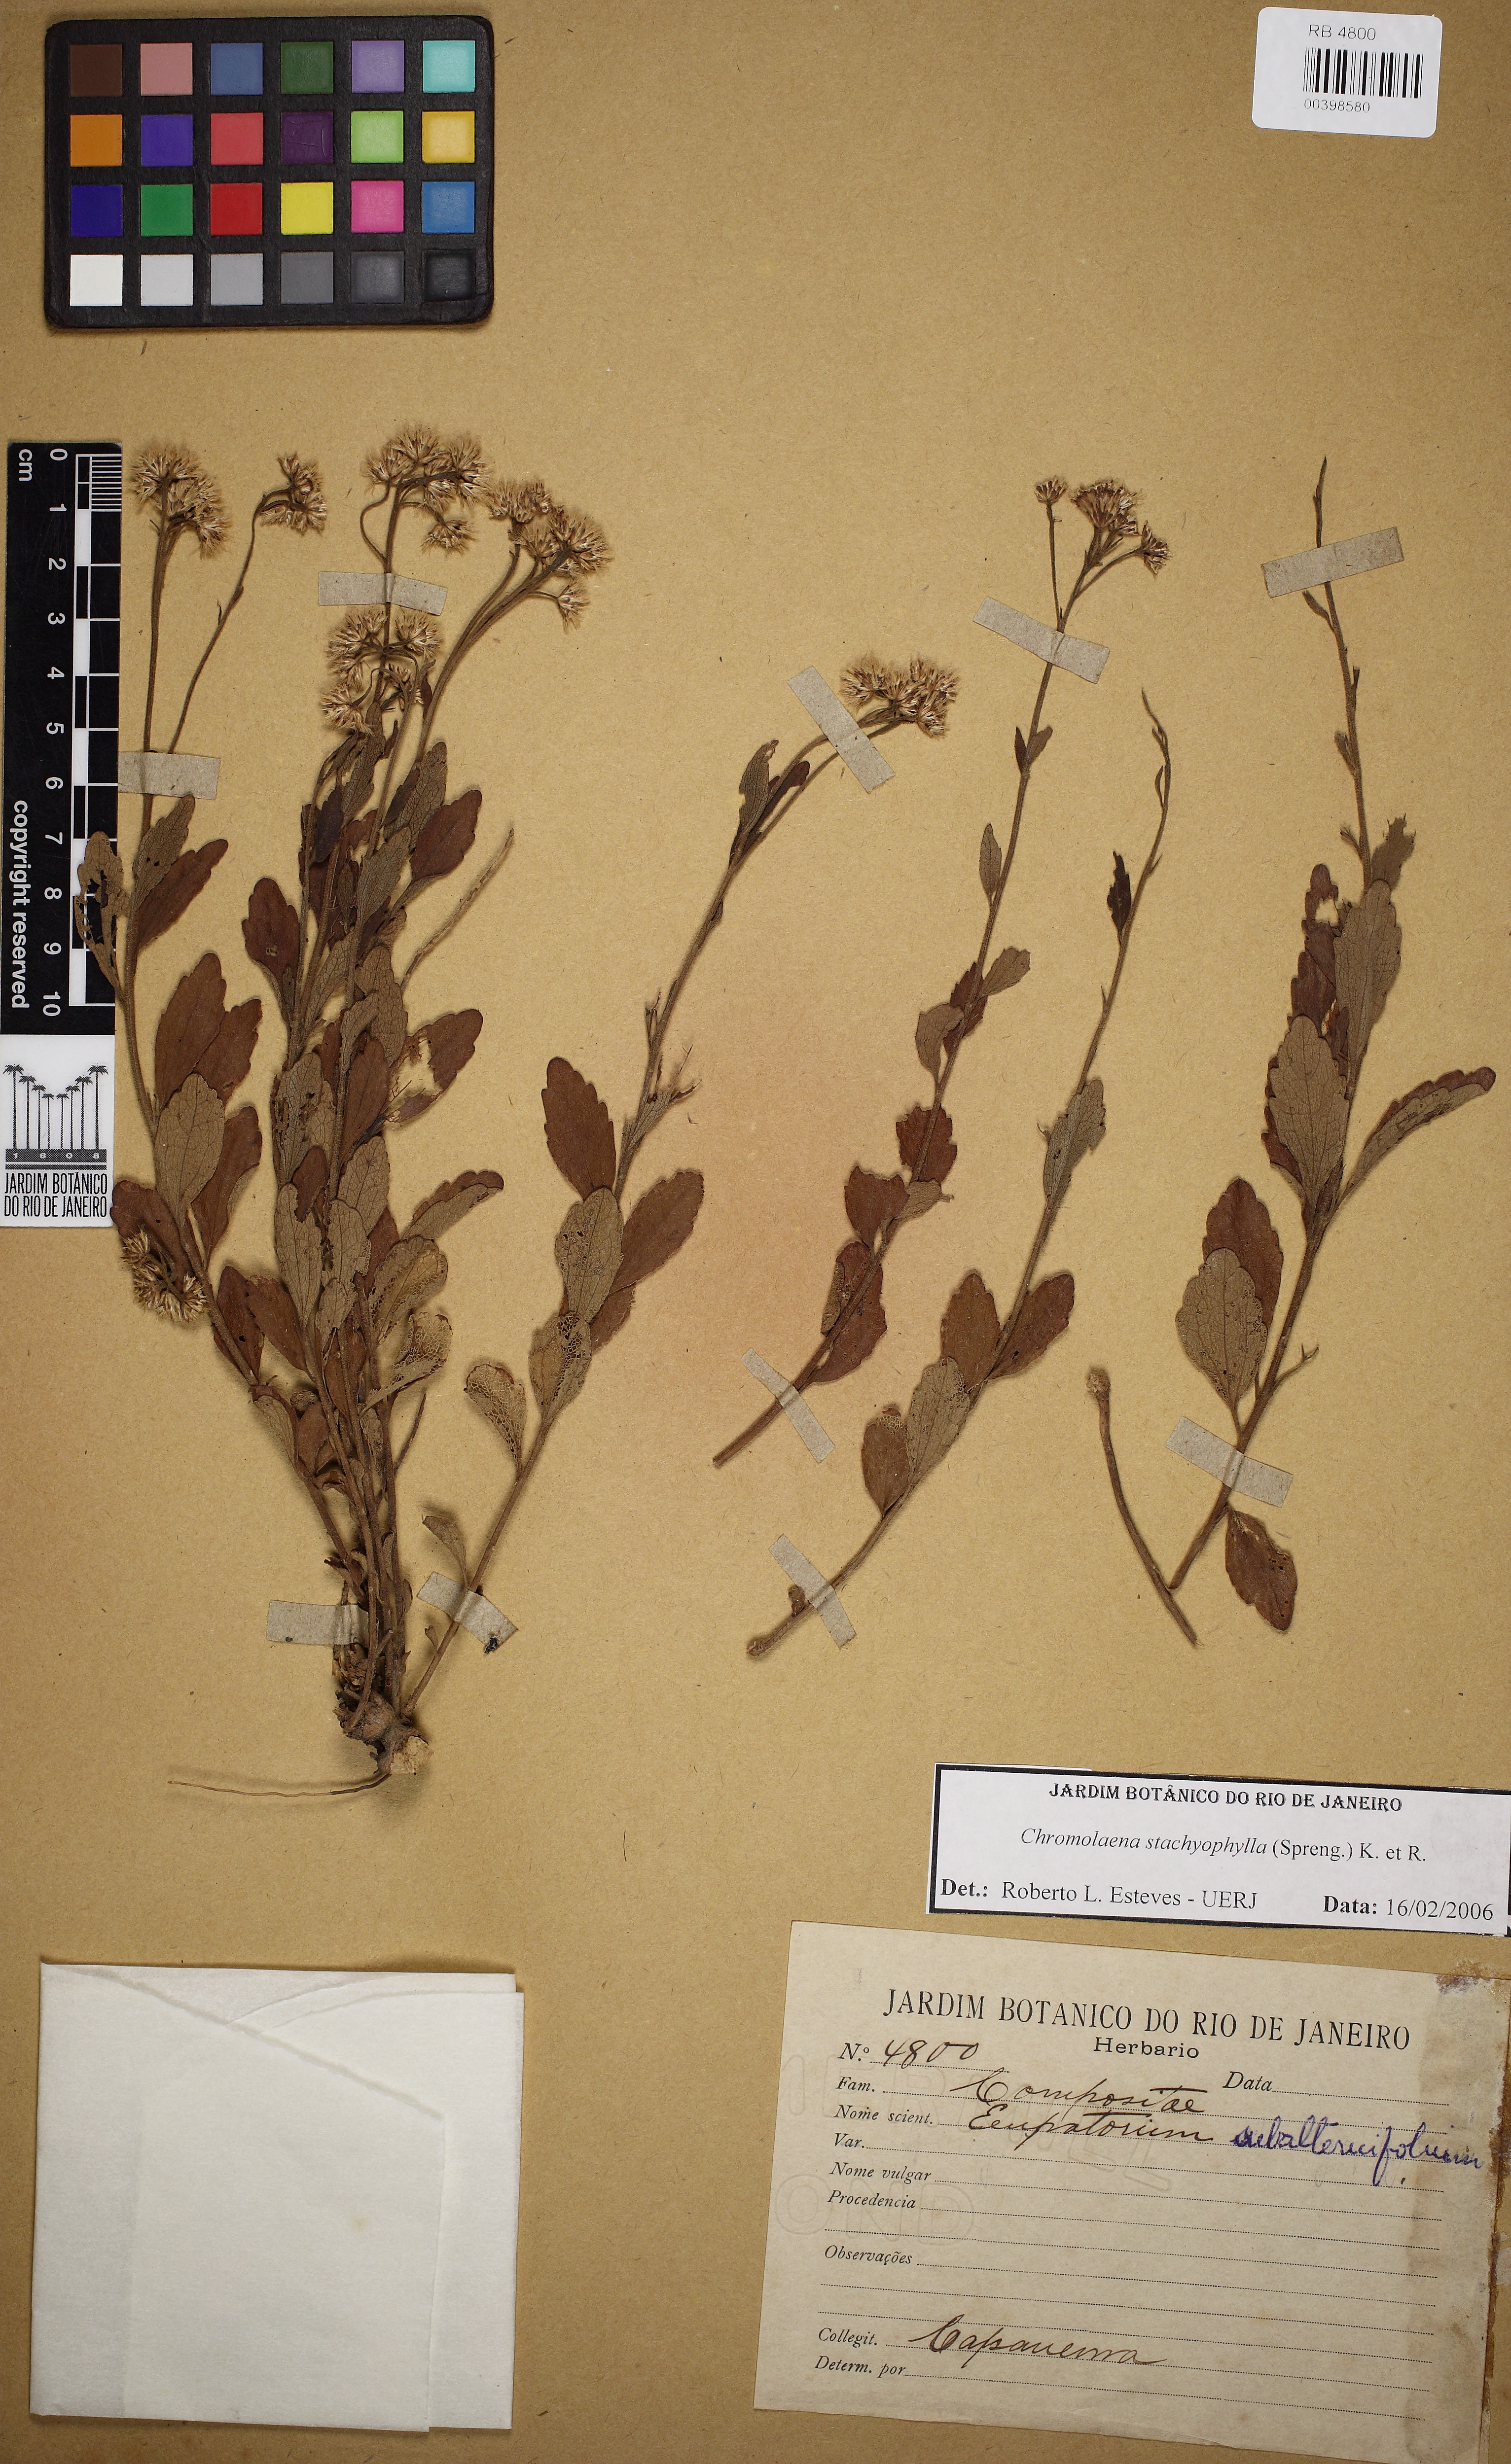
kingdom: Plantae
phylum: Tracheophyta
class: Magnoliopsida
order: Asterales
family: Asteraceae
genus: Chromolaena
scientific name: Chromolaena stachyophylla
